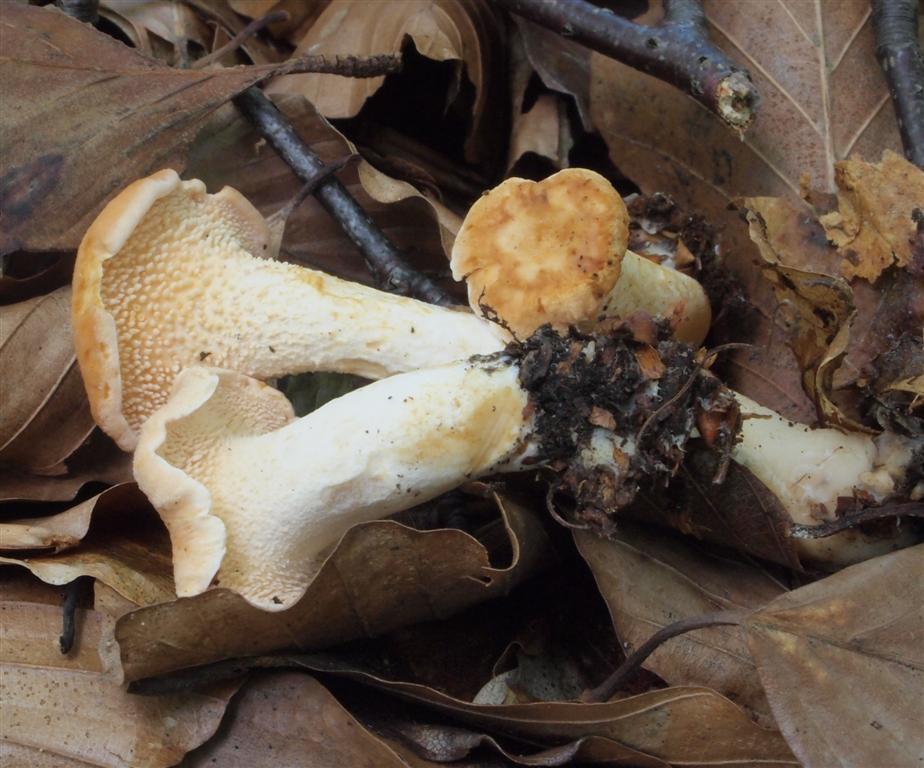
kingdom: Fungi
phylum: Basidiomycota
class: Agaricomycetes
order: Cantharellales
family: Hydnaceae
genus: Hydnum
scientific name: Hydnum rufescens
